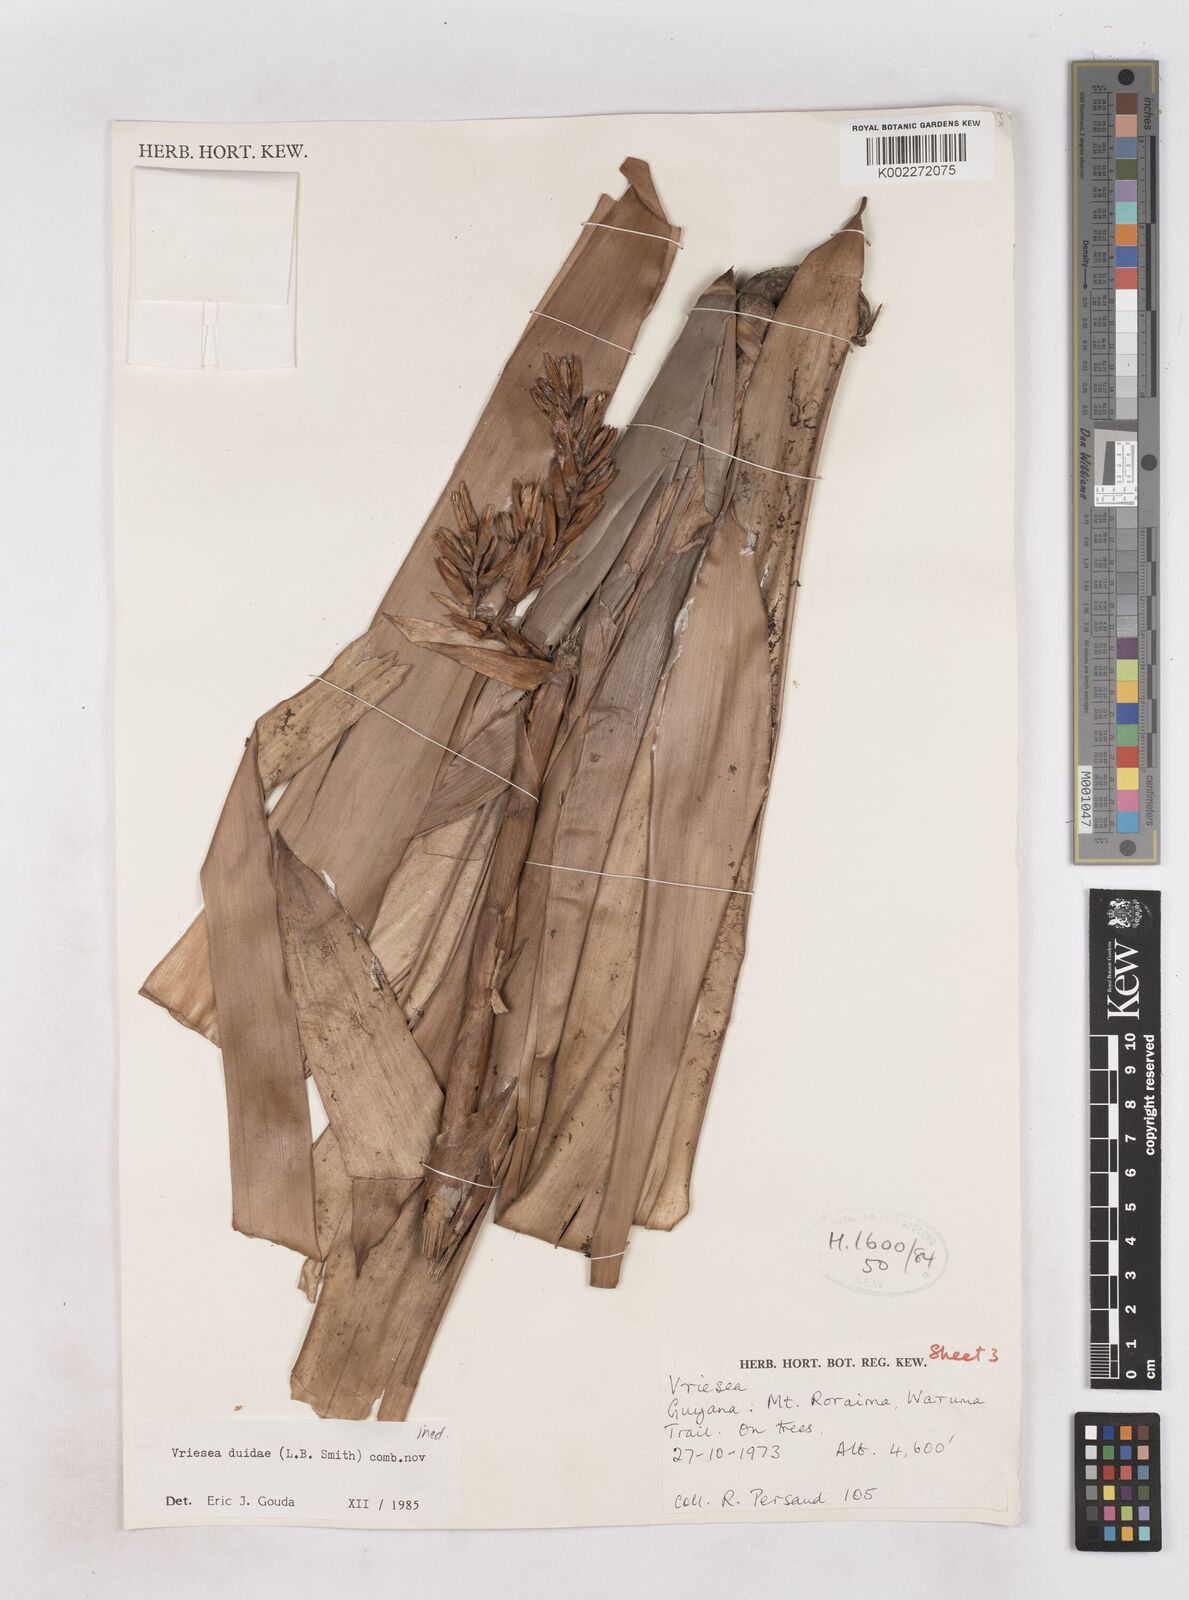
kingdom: Plantae
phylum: Tracheophyta
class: Liliopsida
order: Poales
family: Bromeliaceae
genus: Vriesea
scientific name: Vriesea duidae
